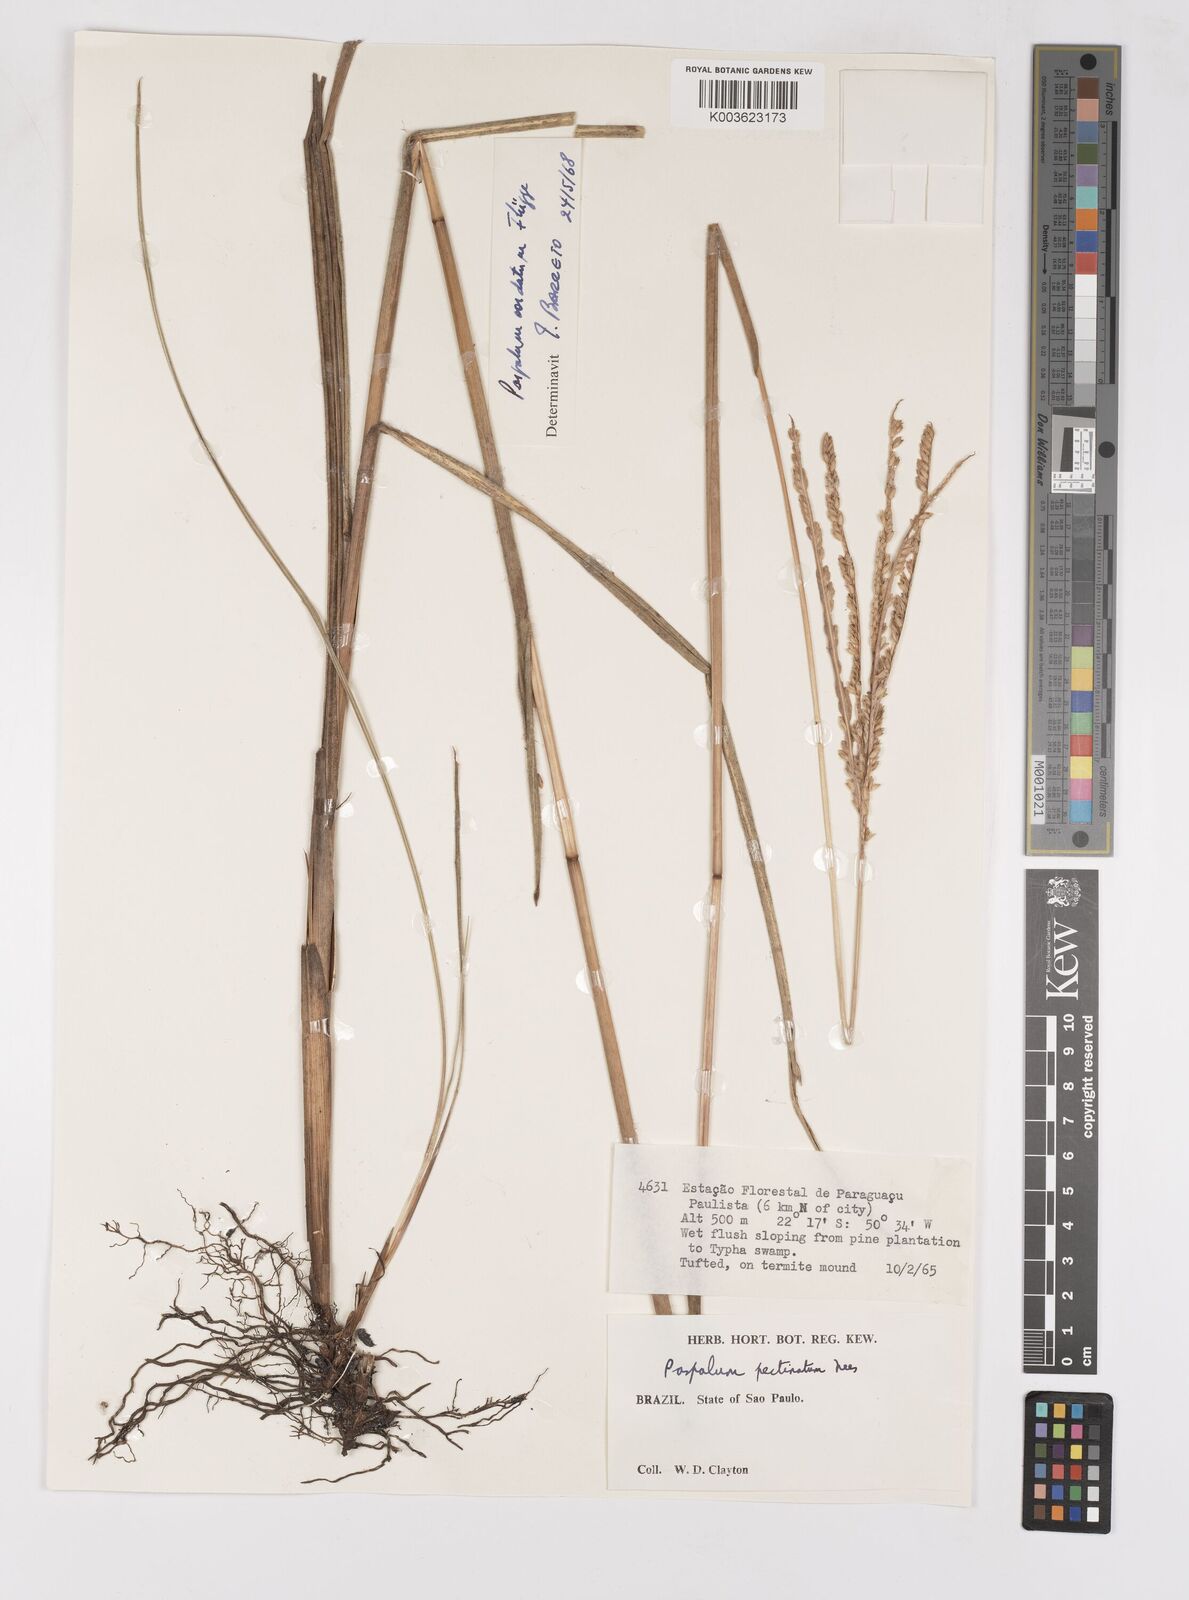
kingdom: Plantae
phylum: Tracheophyta
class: Liliopsida
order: Poales
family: Poaceae
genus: Paspalum
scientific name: Paspalum cordatum
